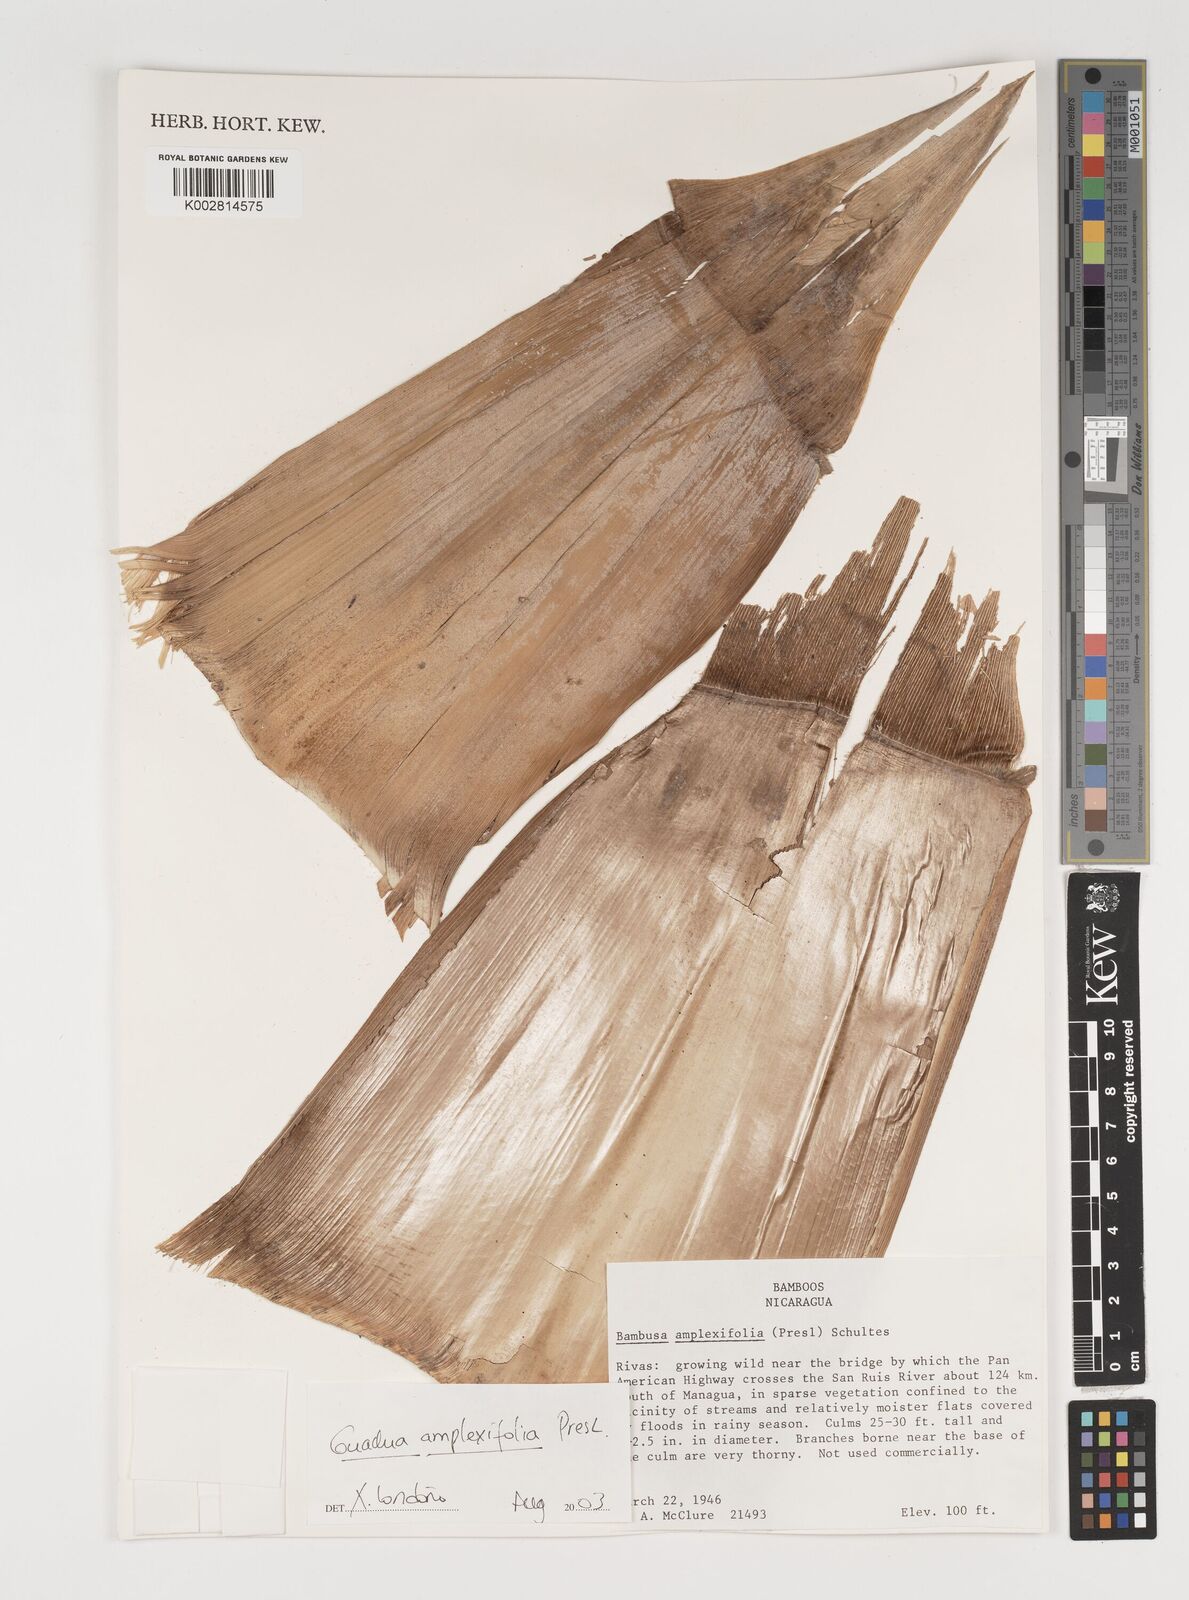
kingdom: Plantae
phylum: Tracheophyta
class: Liliopsida
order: Poales
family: Poaceae
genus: Guadua
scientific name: Guadua amplexifolia
